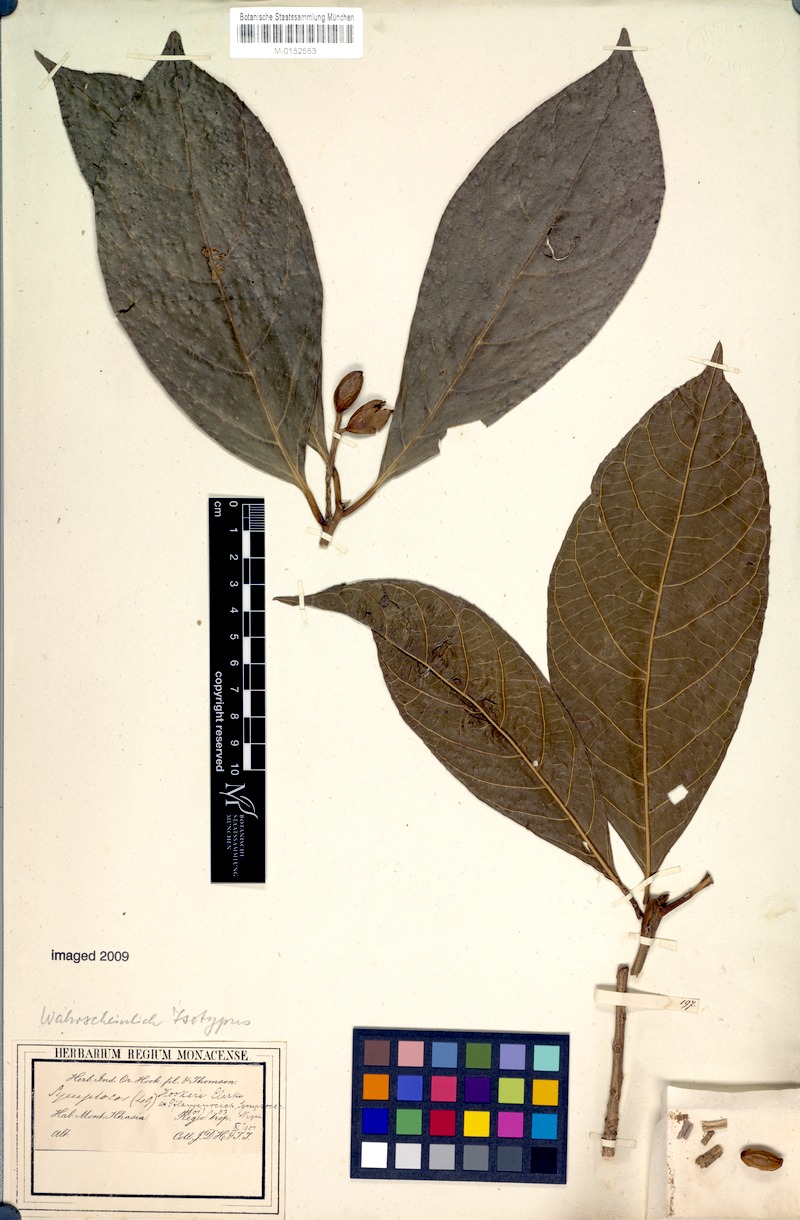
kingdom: Plantae
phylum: Tracheophyta
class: Magnoliopsida
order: Ericales
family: Symplocaceae
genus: Symplocos
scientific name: Symplocos hookeri
